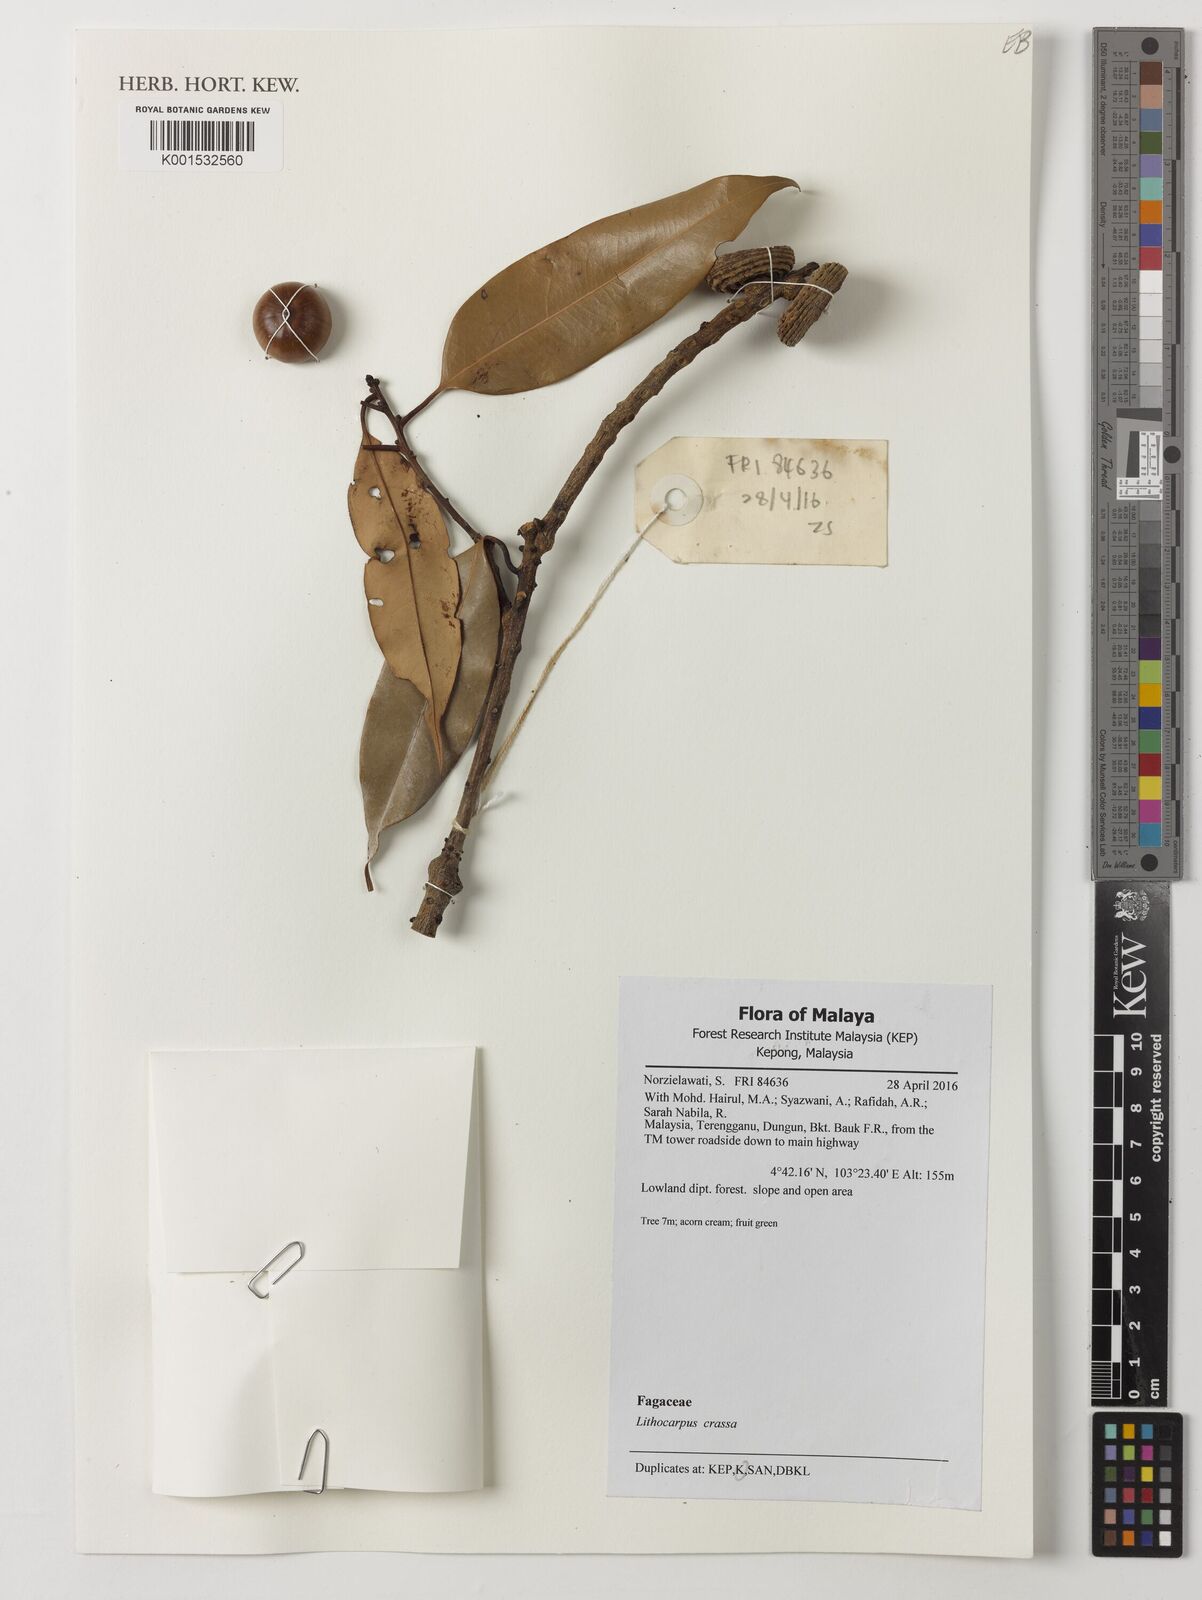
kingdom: Plantae
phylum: Tracheophyta
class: Magnoliopsida
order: Fagales
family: Fagaceae
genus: Lithocarpus
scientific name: Lithocarpus rassa
